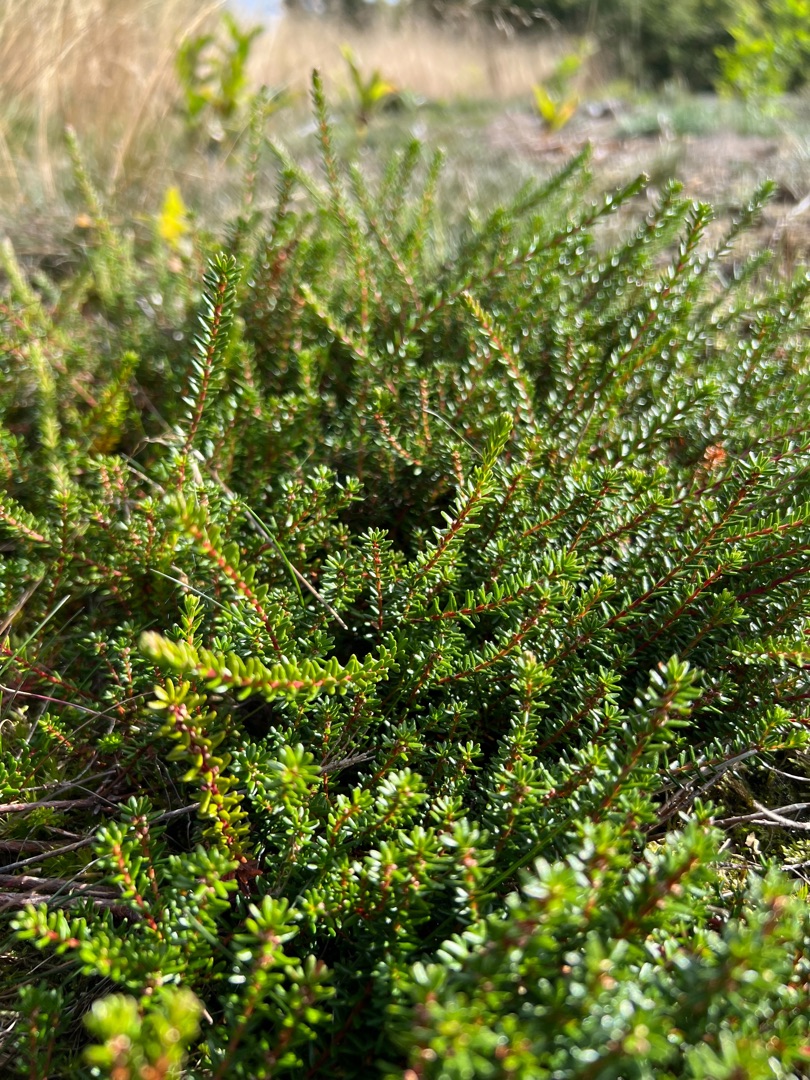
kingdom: Plantae
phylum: Tracheophyta
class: Magnoliopsida
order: Ericales
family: Ericaceae
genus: Empetrum
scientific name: Empetrum nigrum
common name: Revling
